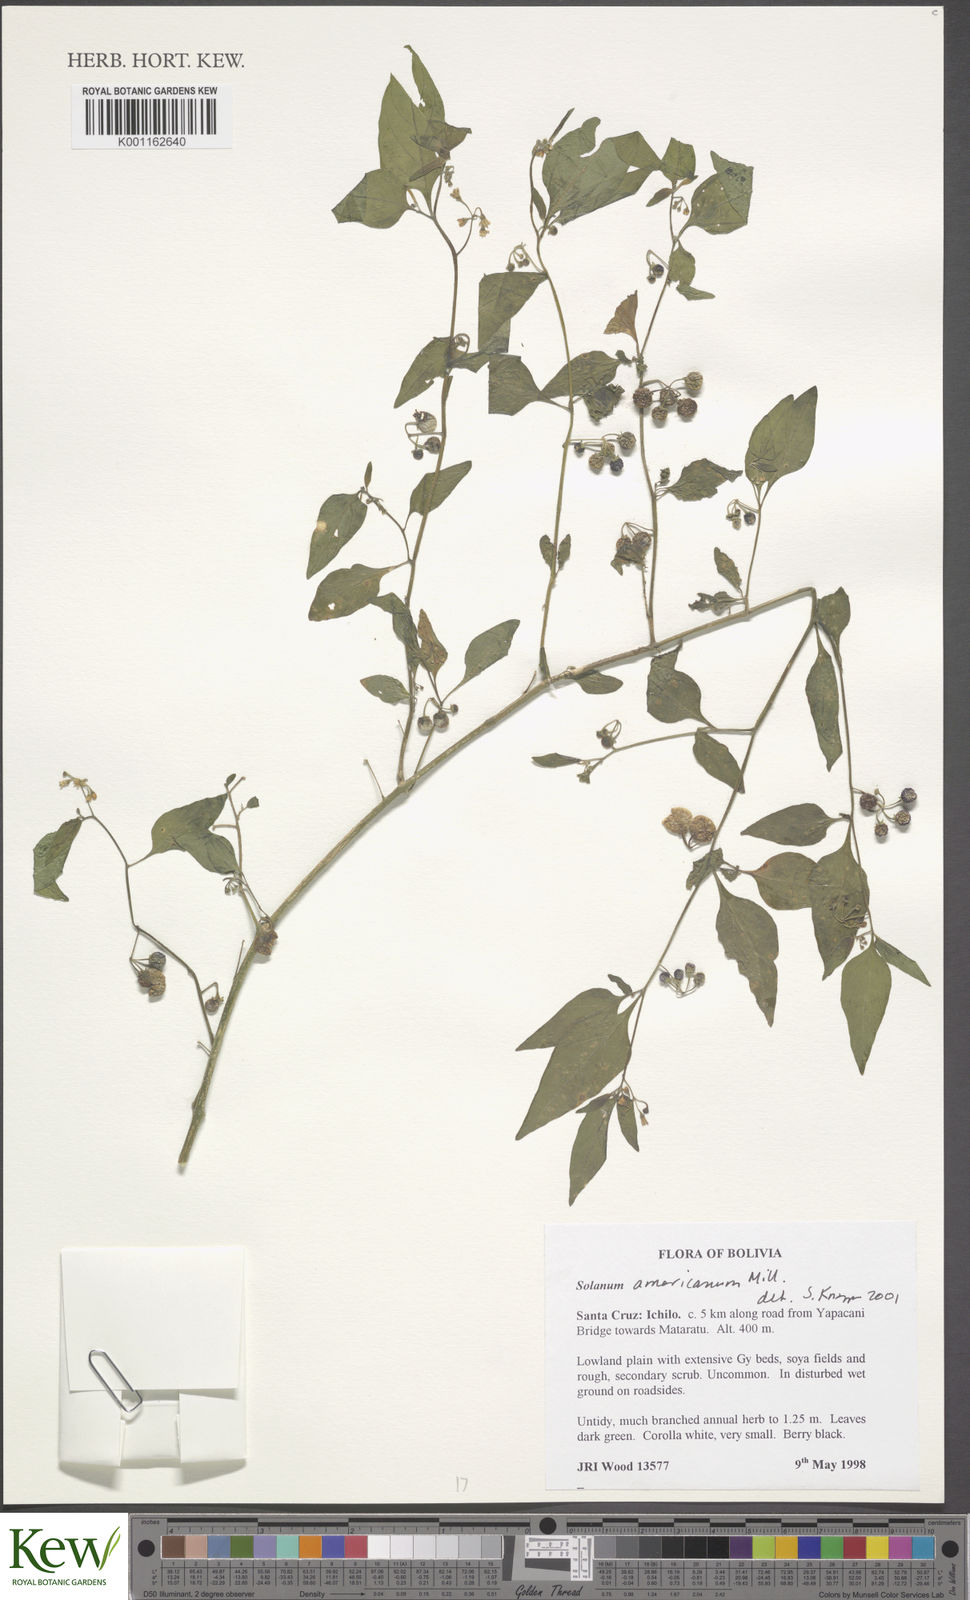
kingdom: Plantae
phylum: Tracheophyta
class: Magnoliopsida
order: Solanales
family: Solanaceae
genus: Solanum
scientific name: Solanum americanum
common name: American black nightshade
